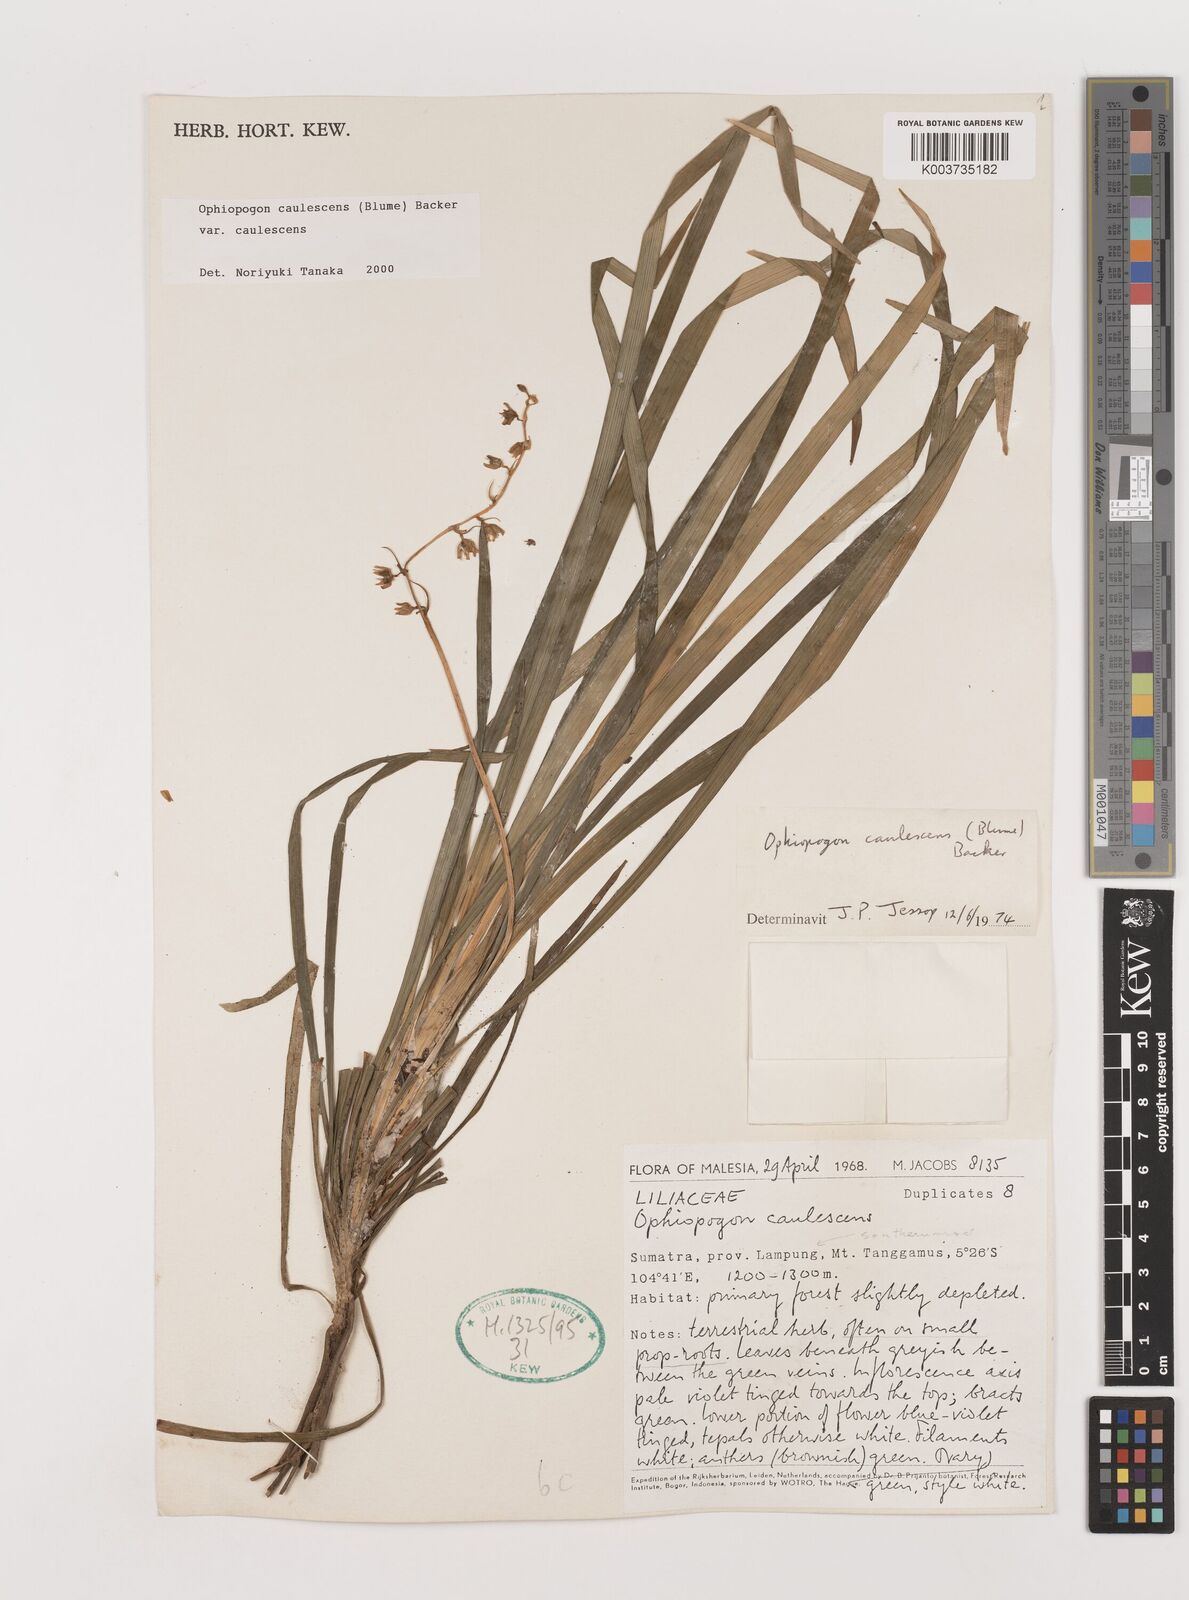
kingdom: Plantae
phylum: Tracheophyta
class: Liliopsida
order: Asparagales
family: Asparagaceae
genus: Ophiopogon
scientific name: Ophiopogon caulescens
